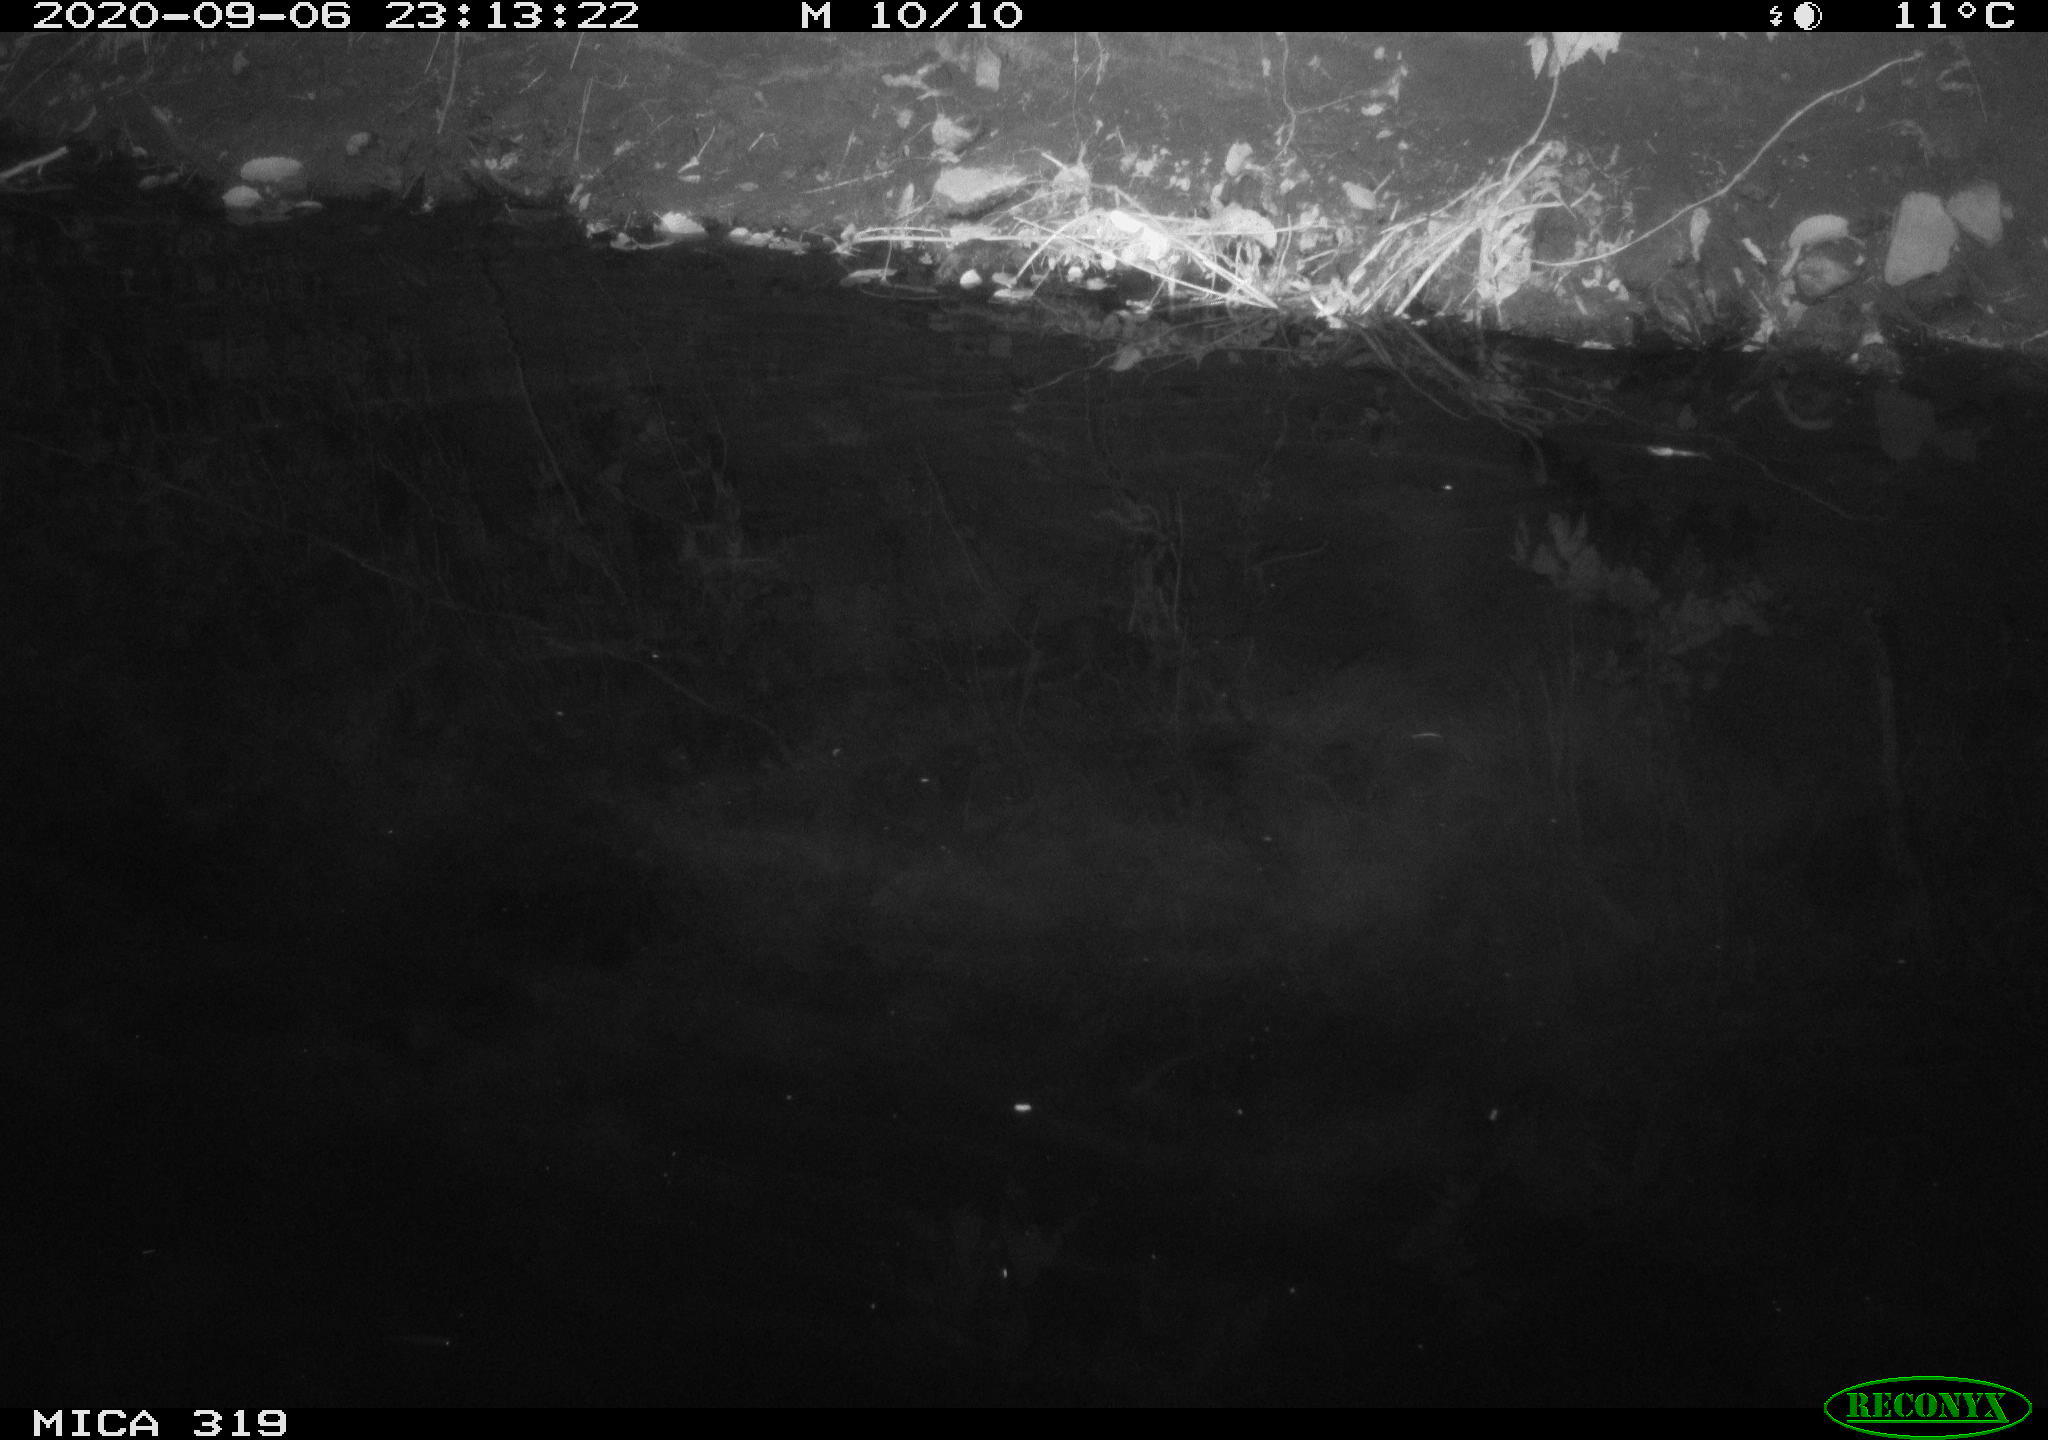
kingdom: Animalia
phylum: Chordata
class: Aves
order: Anseriformes
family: Anatidae
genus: Anas
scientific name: Anas platyrhynchos
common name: Mallard
